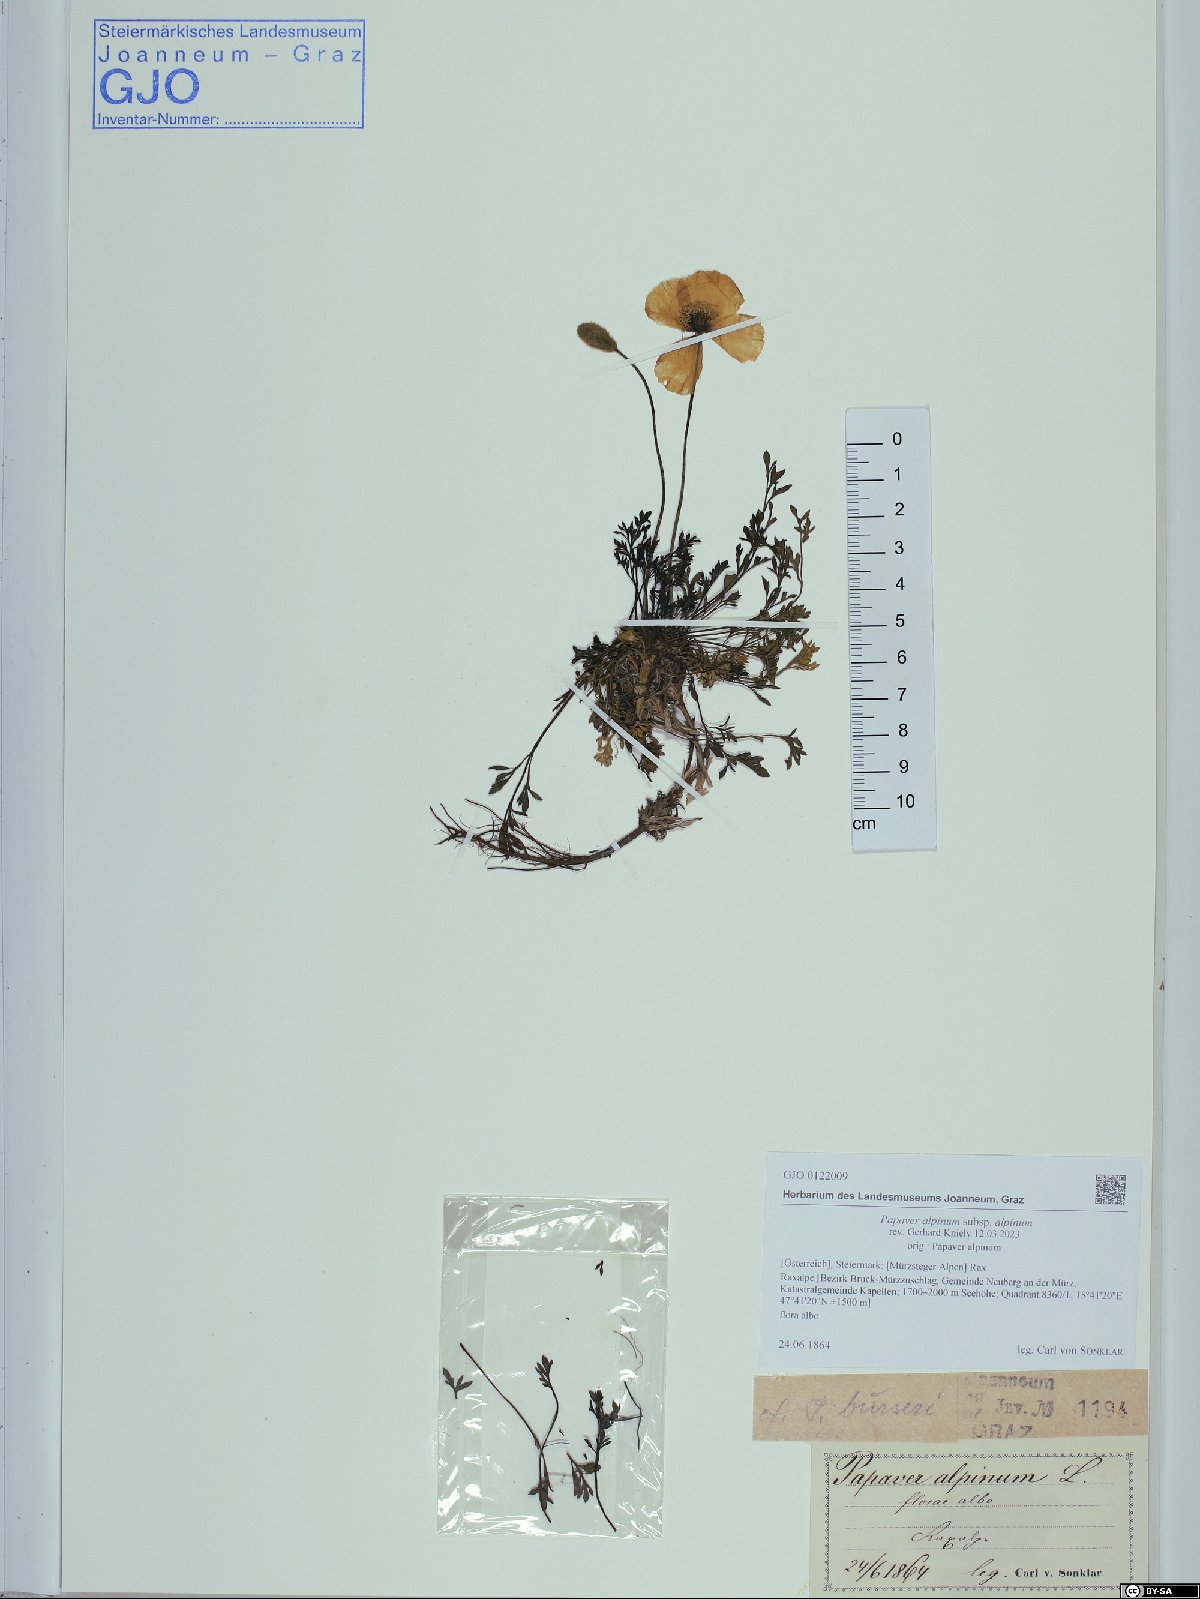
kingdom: Plantae
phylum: Tracheophyta
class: Magnoliopsida
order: Ranunculales
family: Papaveraceae
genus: Papaver
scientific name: Papaver alpinum
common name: Austrian poppy
